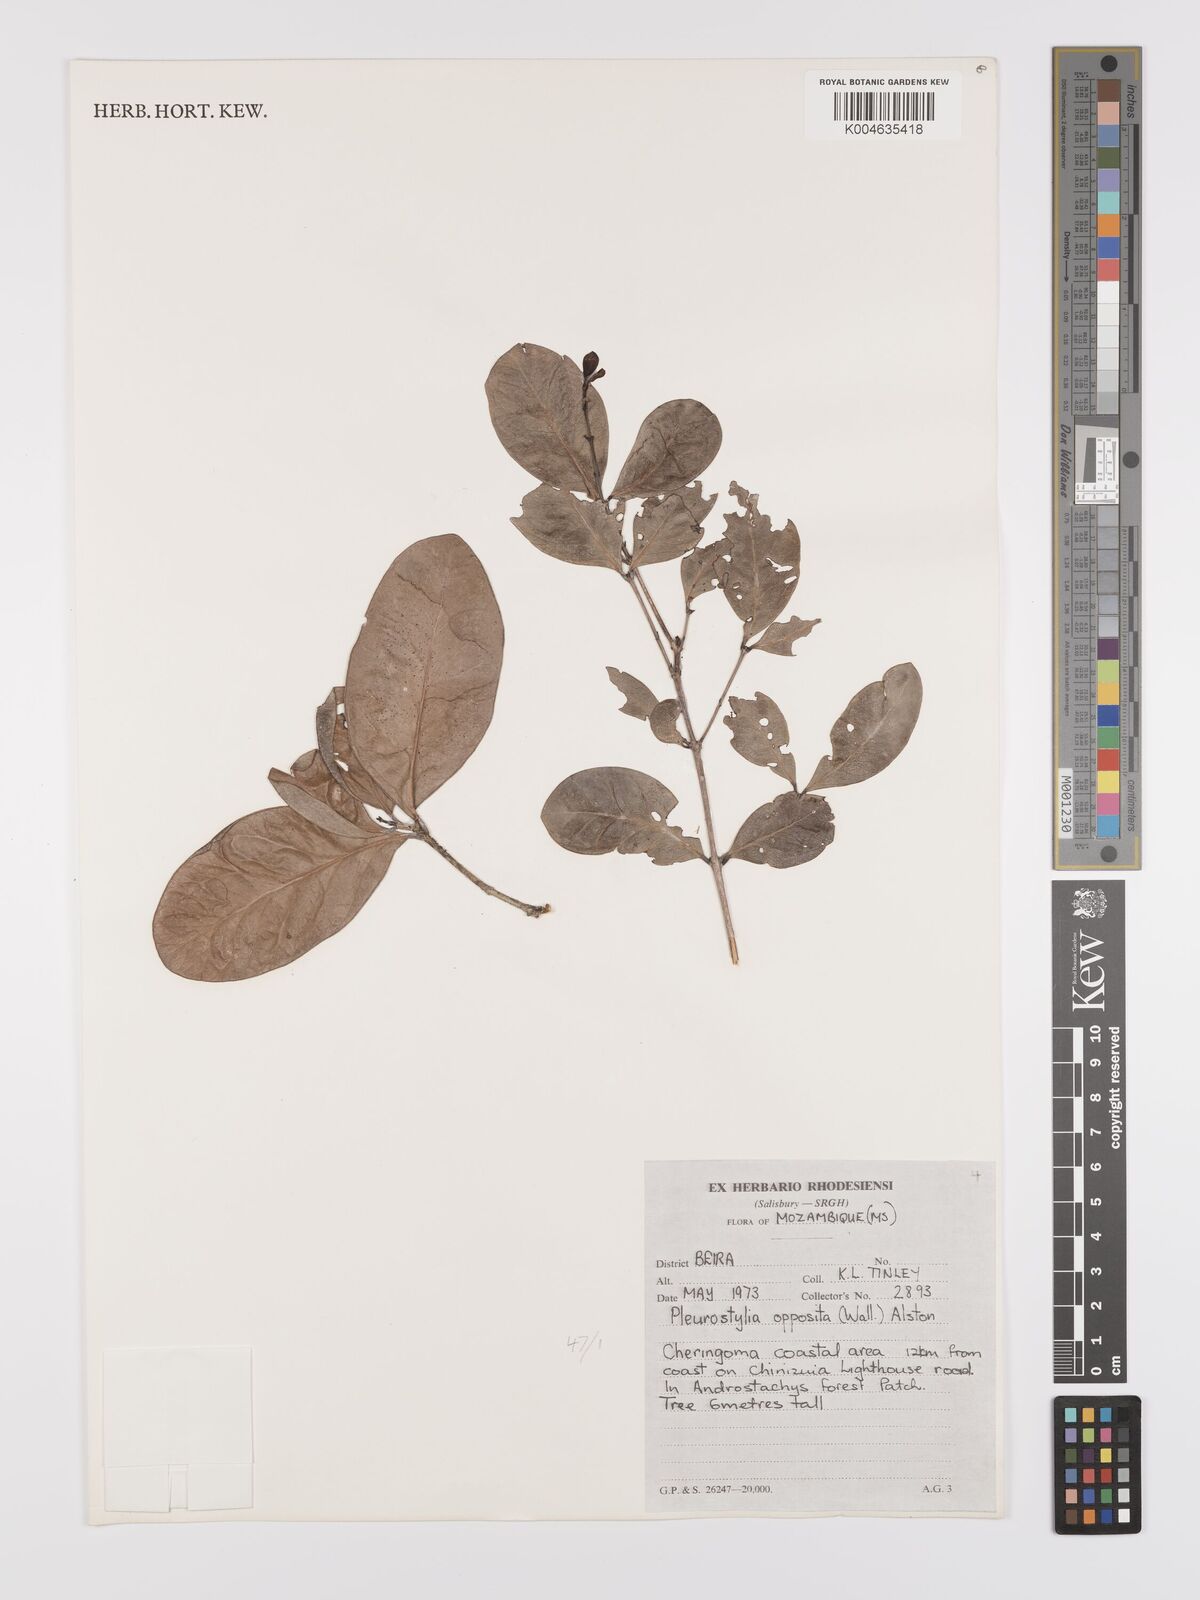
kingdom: Plantae
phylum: Tracheophyta
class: Magnoliopsida
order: Celastrales
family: Celastraceae
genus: Pleurostylia
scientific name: Pleurostylia opposita
